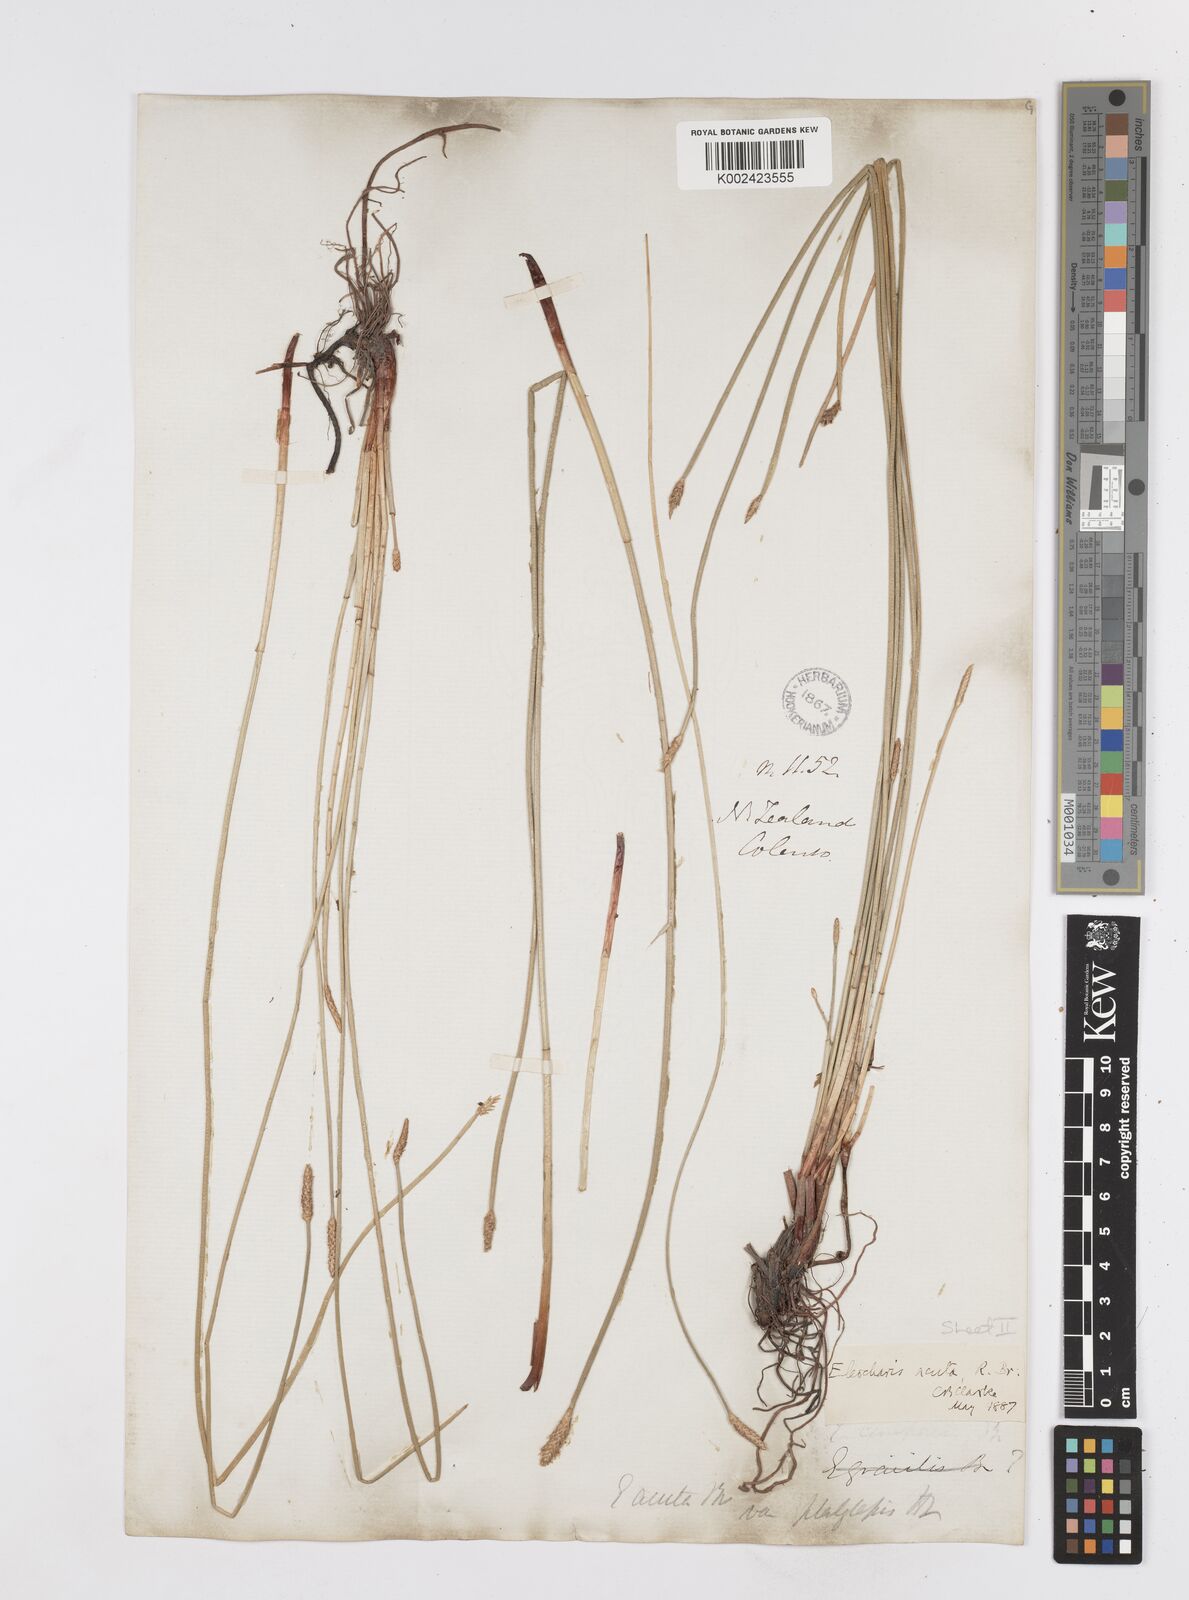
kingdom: Plantae
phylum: Tracheophyta
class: Liliopsida
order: Poales
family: Cyperaceae
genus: Eleocharis
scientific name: Eleocharis acuta
